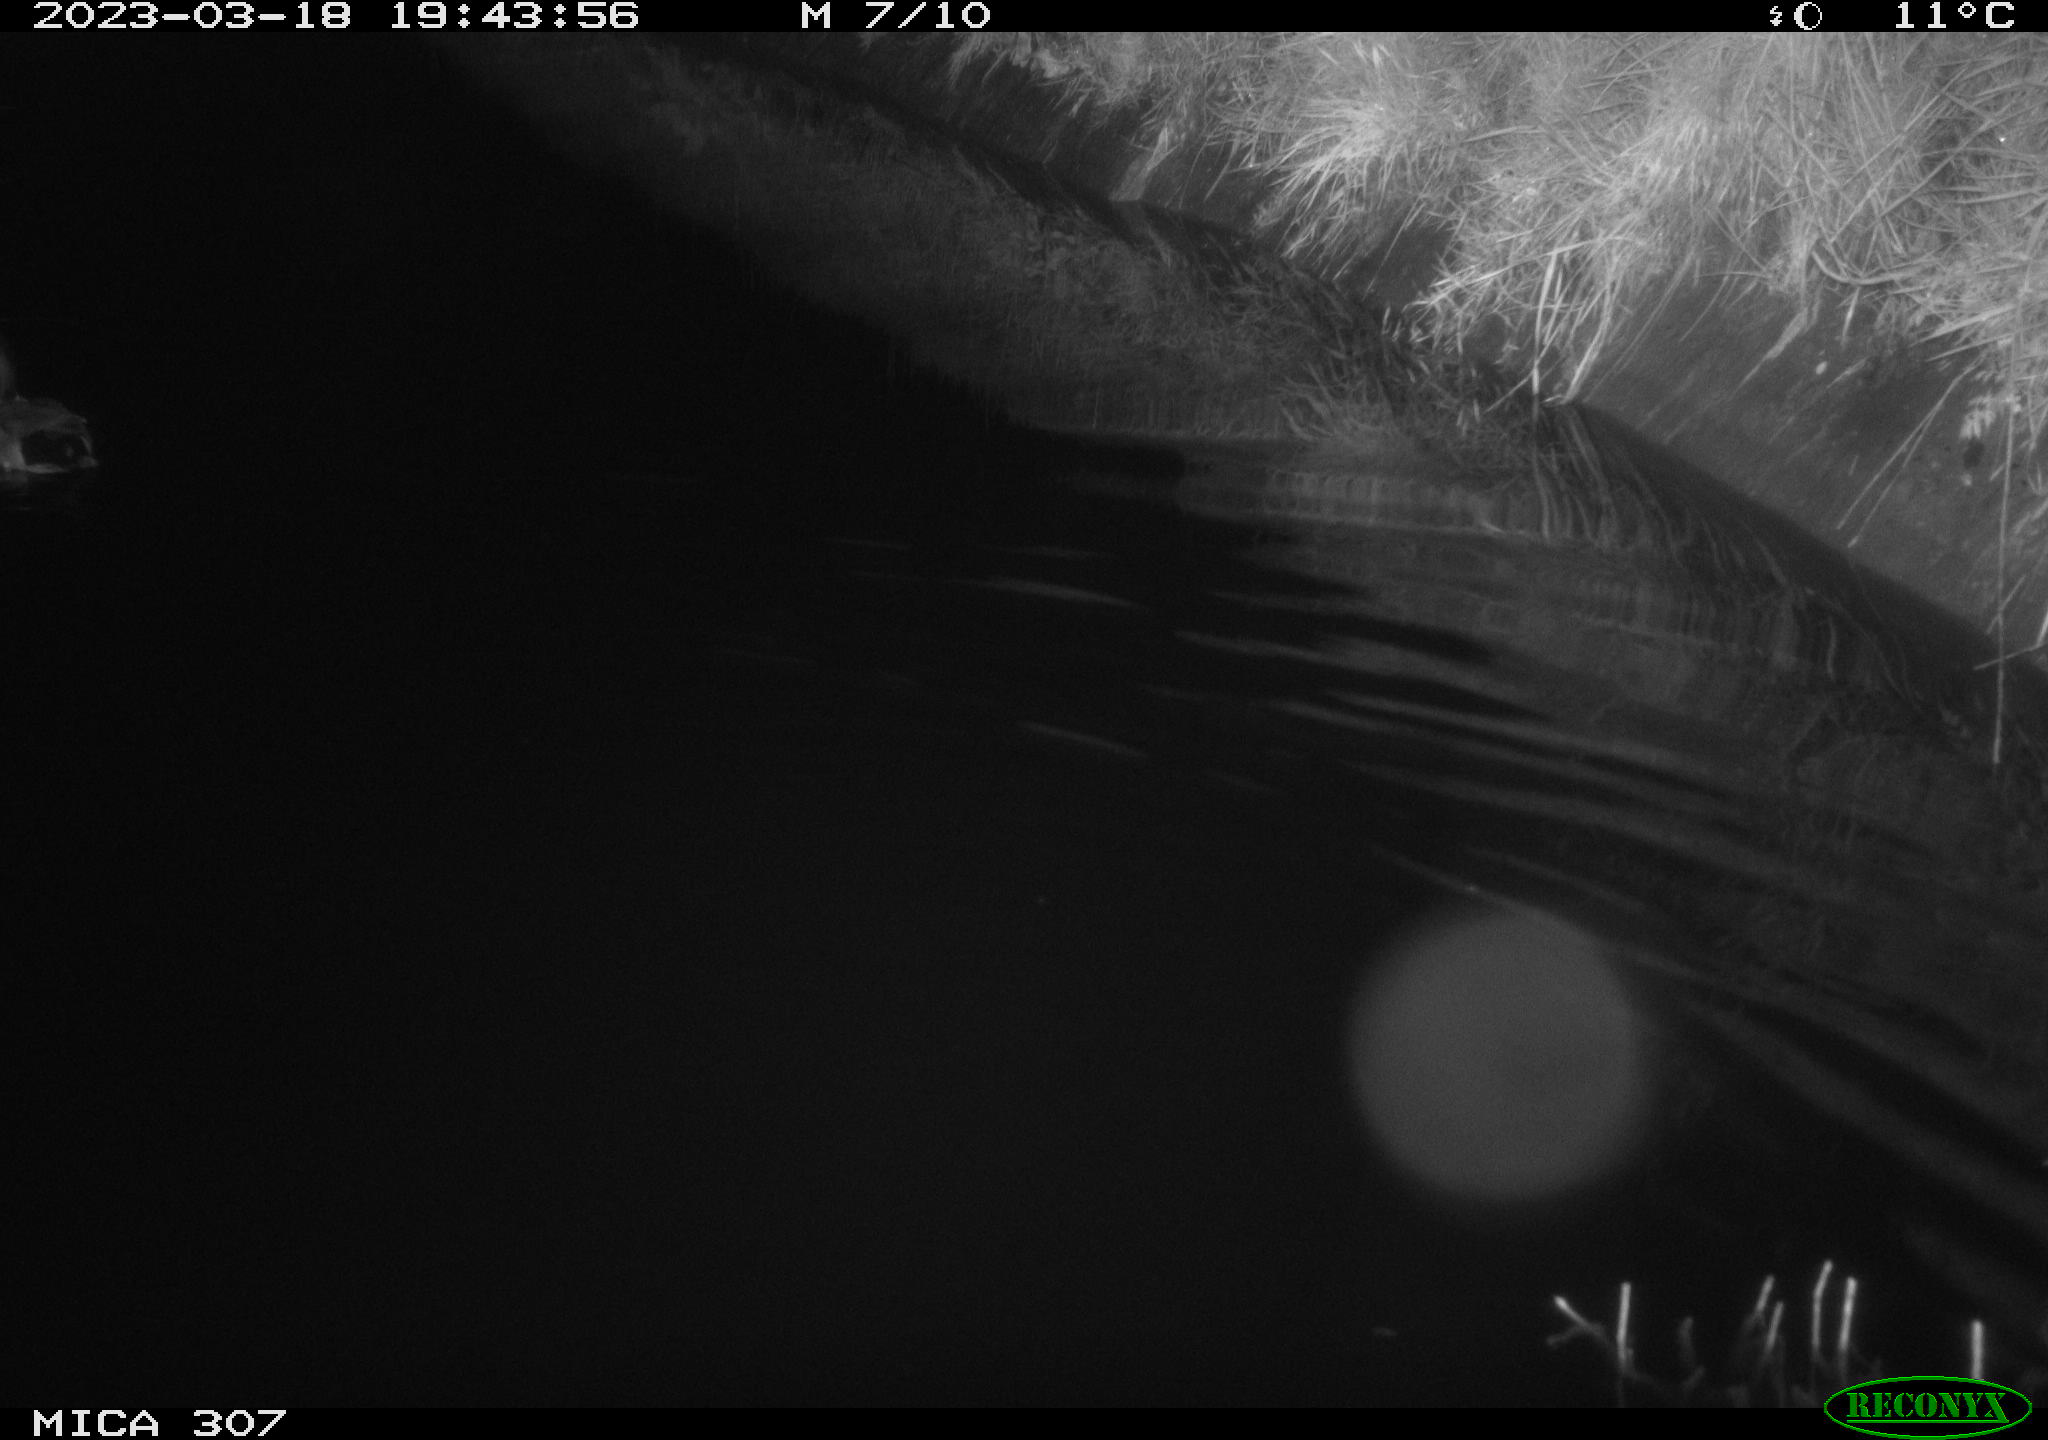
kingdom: Animalia
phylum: Chordata
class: Aves
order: Anseriformes
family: Anatidae
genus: Anas
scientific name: Anas
